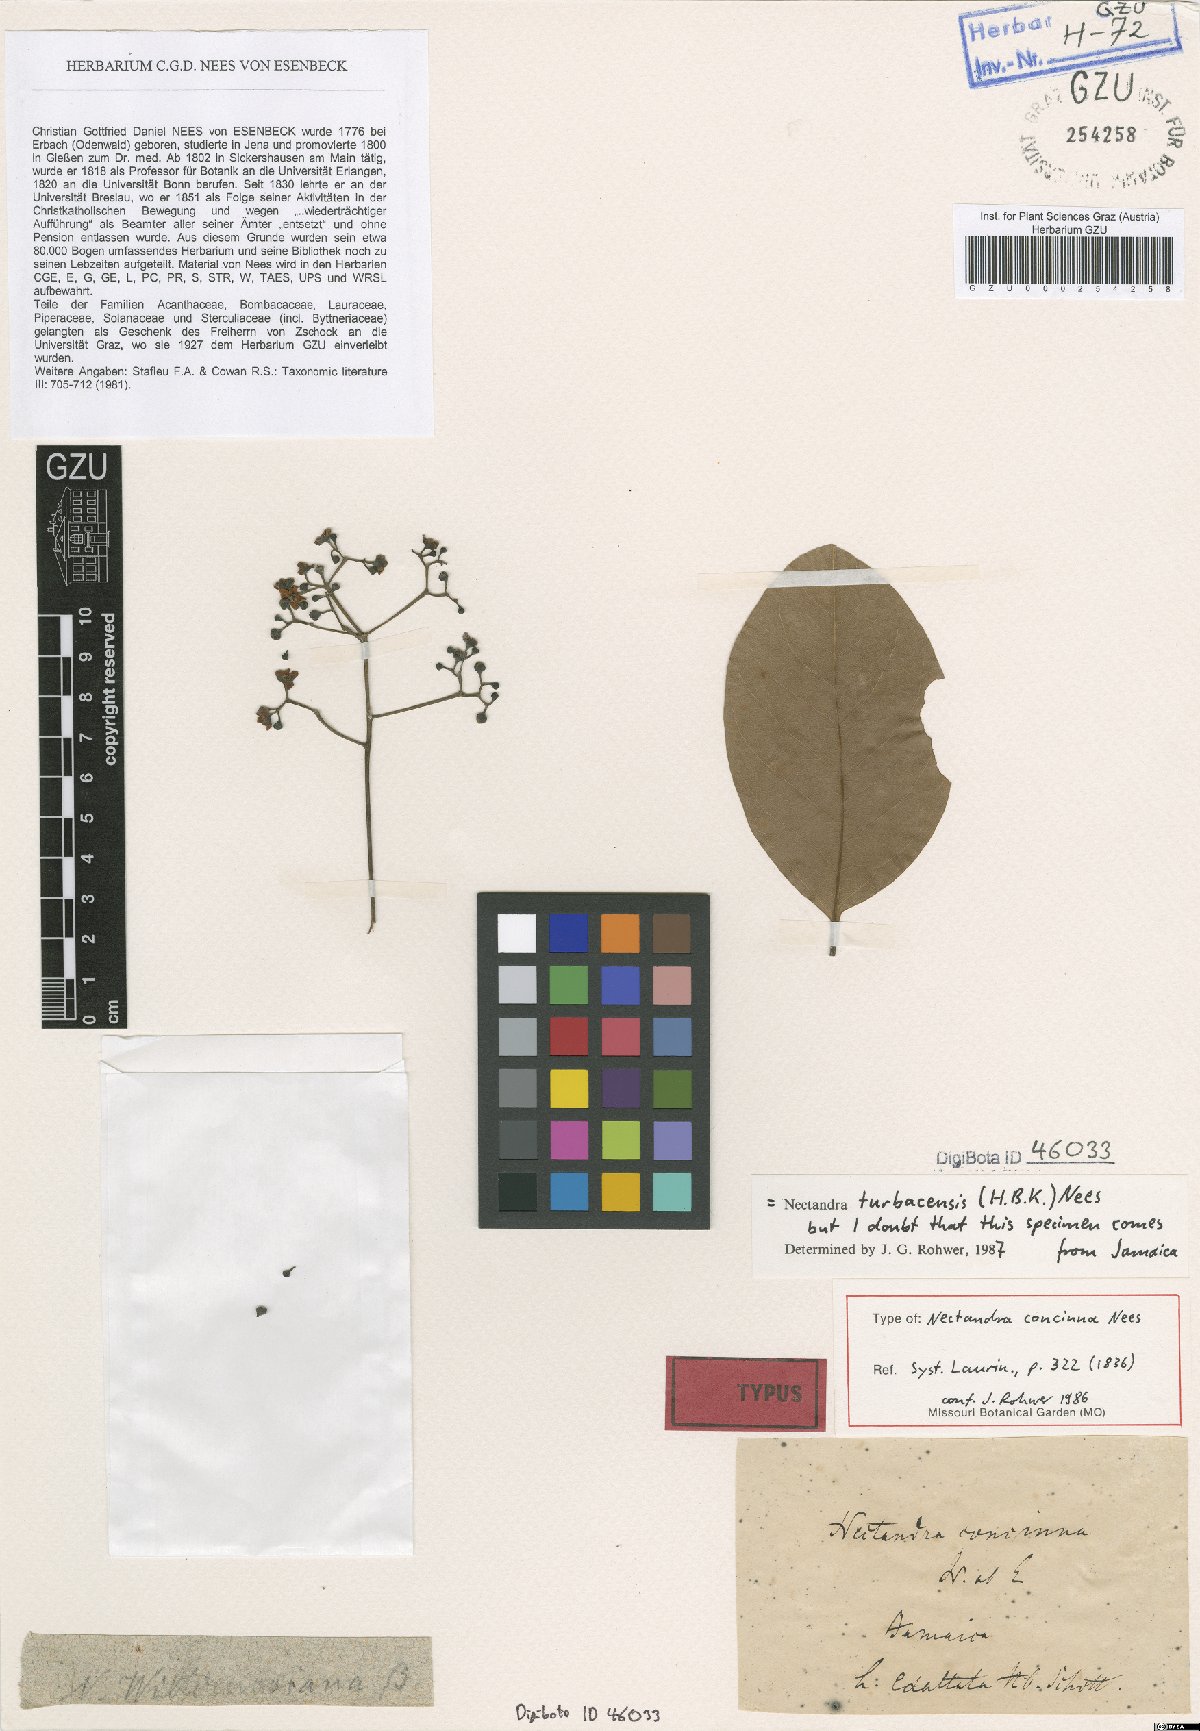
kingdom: Plantae
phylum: Tracheophyta
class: Magnoliopsida
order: Laurales
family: Lauraceae
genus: Nectandra
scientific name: Nectandra turbacensis
